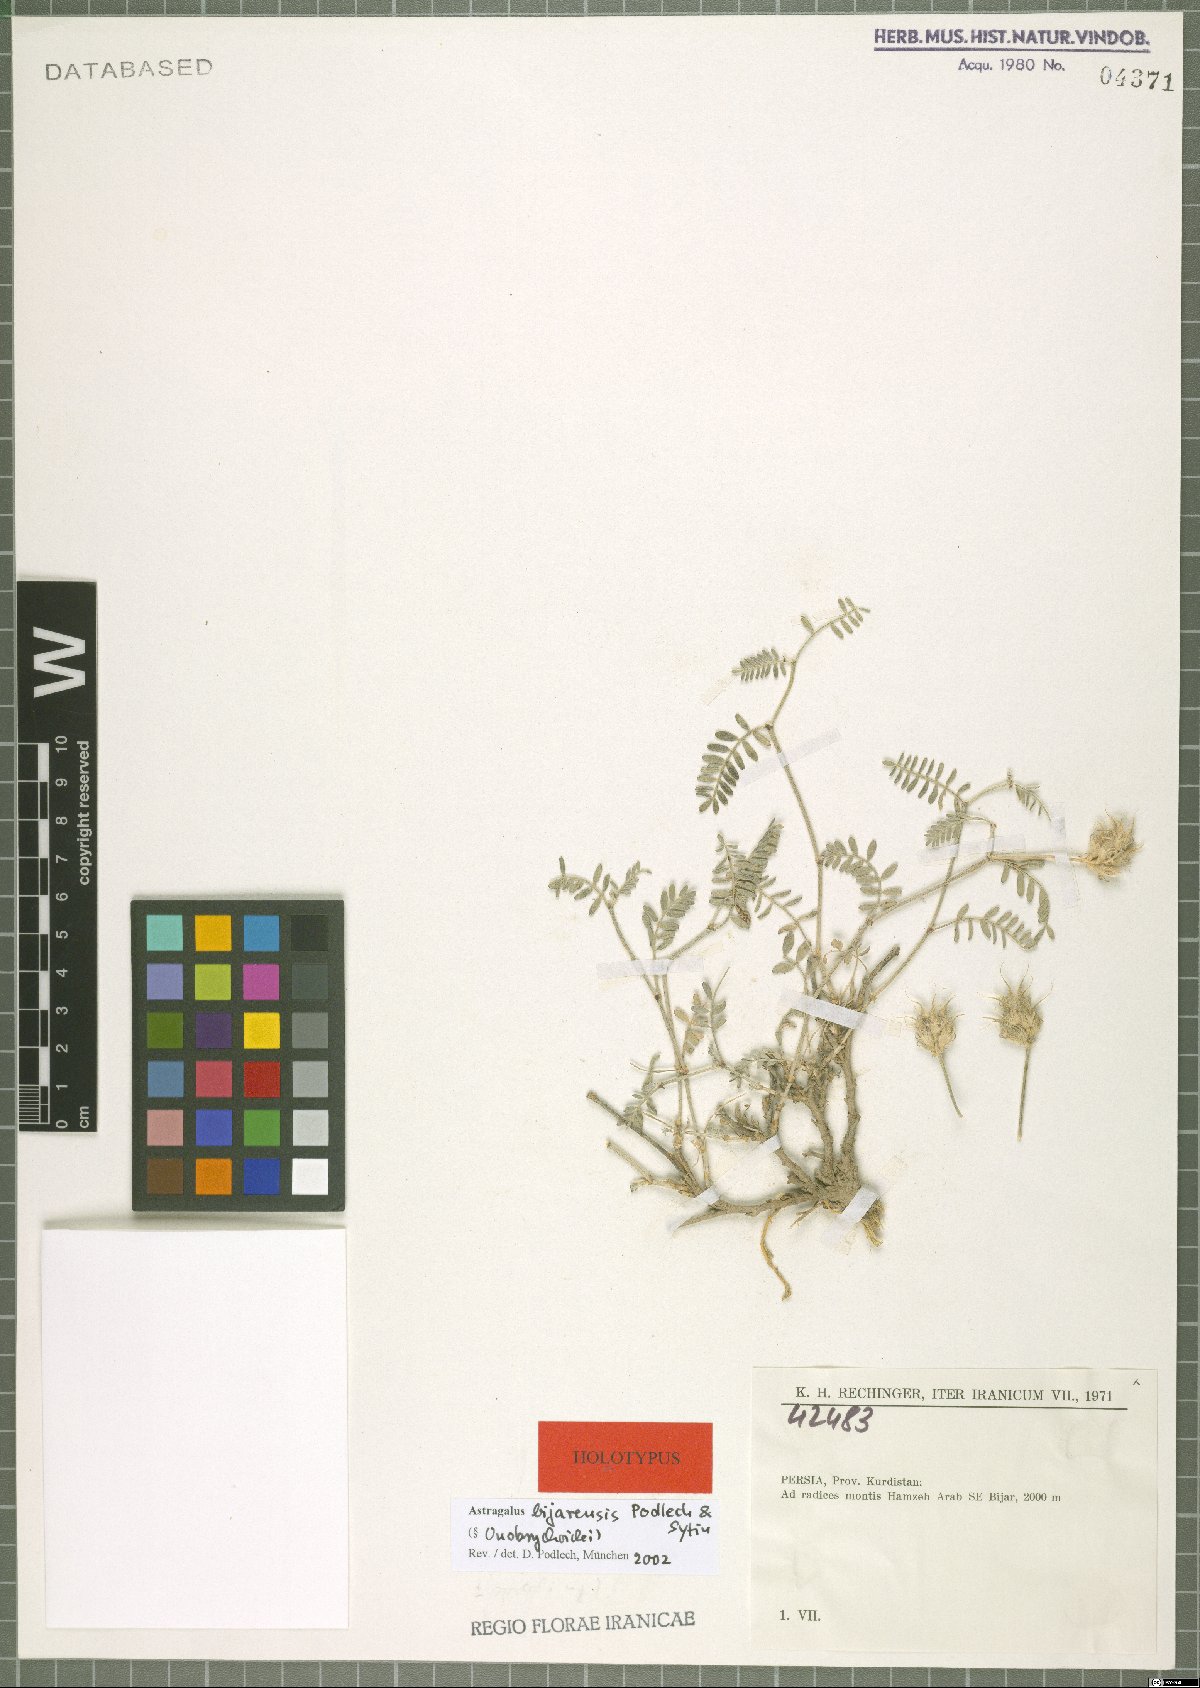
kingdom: Plantae
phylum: Tracheophyta
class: Magnoliopsida
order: Fabales
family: Fabaceae
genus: Astragalus
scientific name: Astragalus bijarensis
